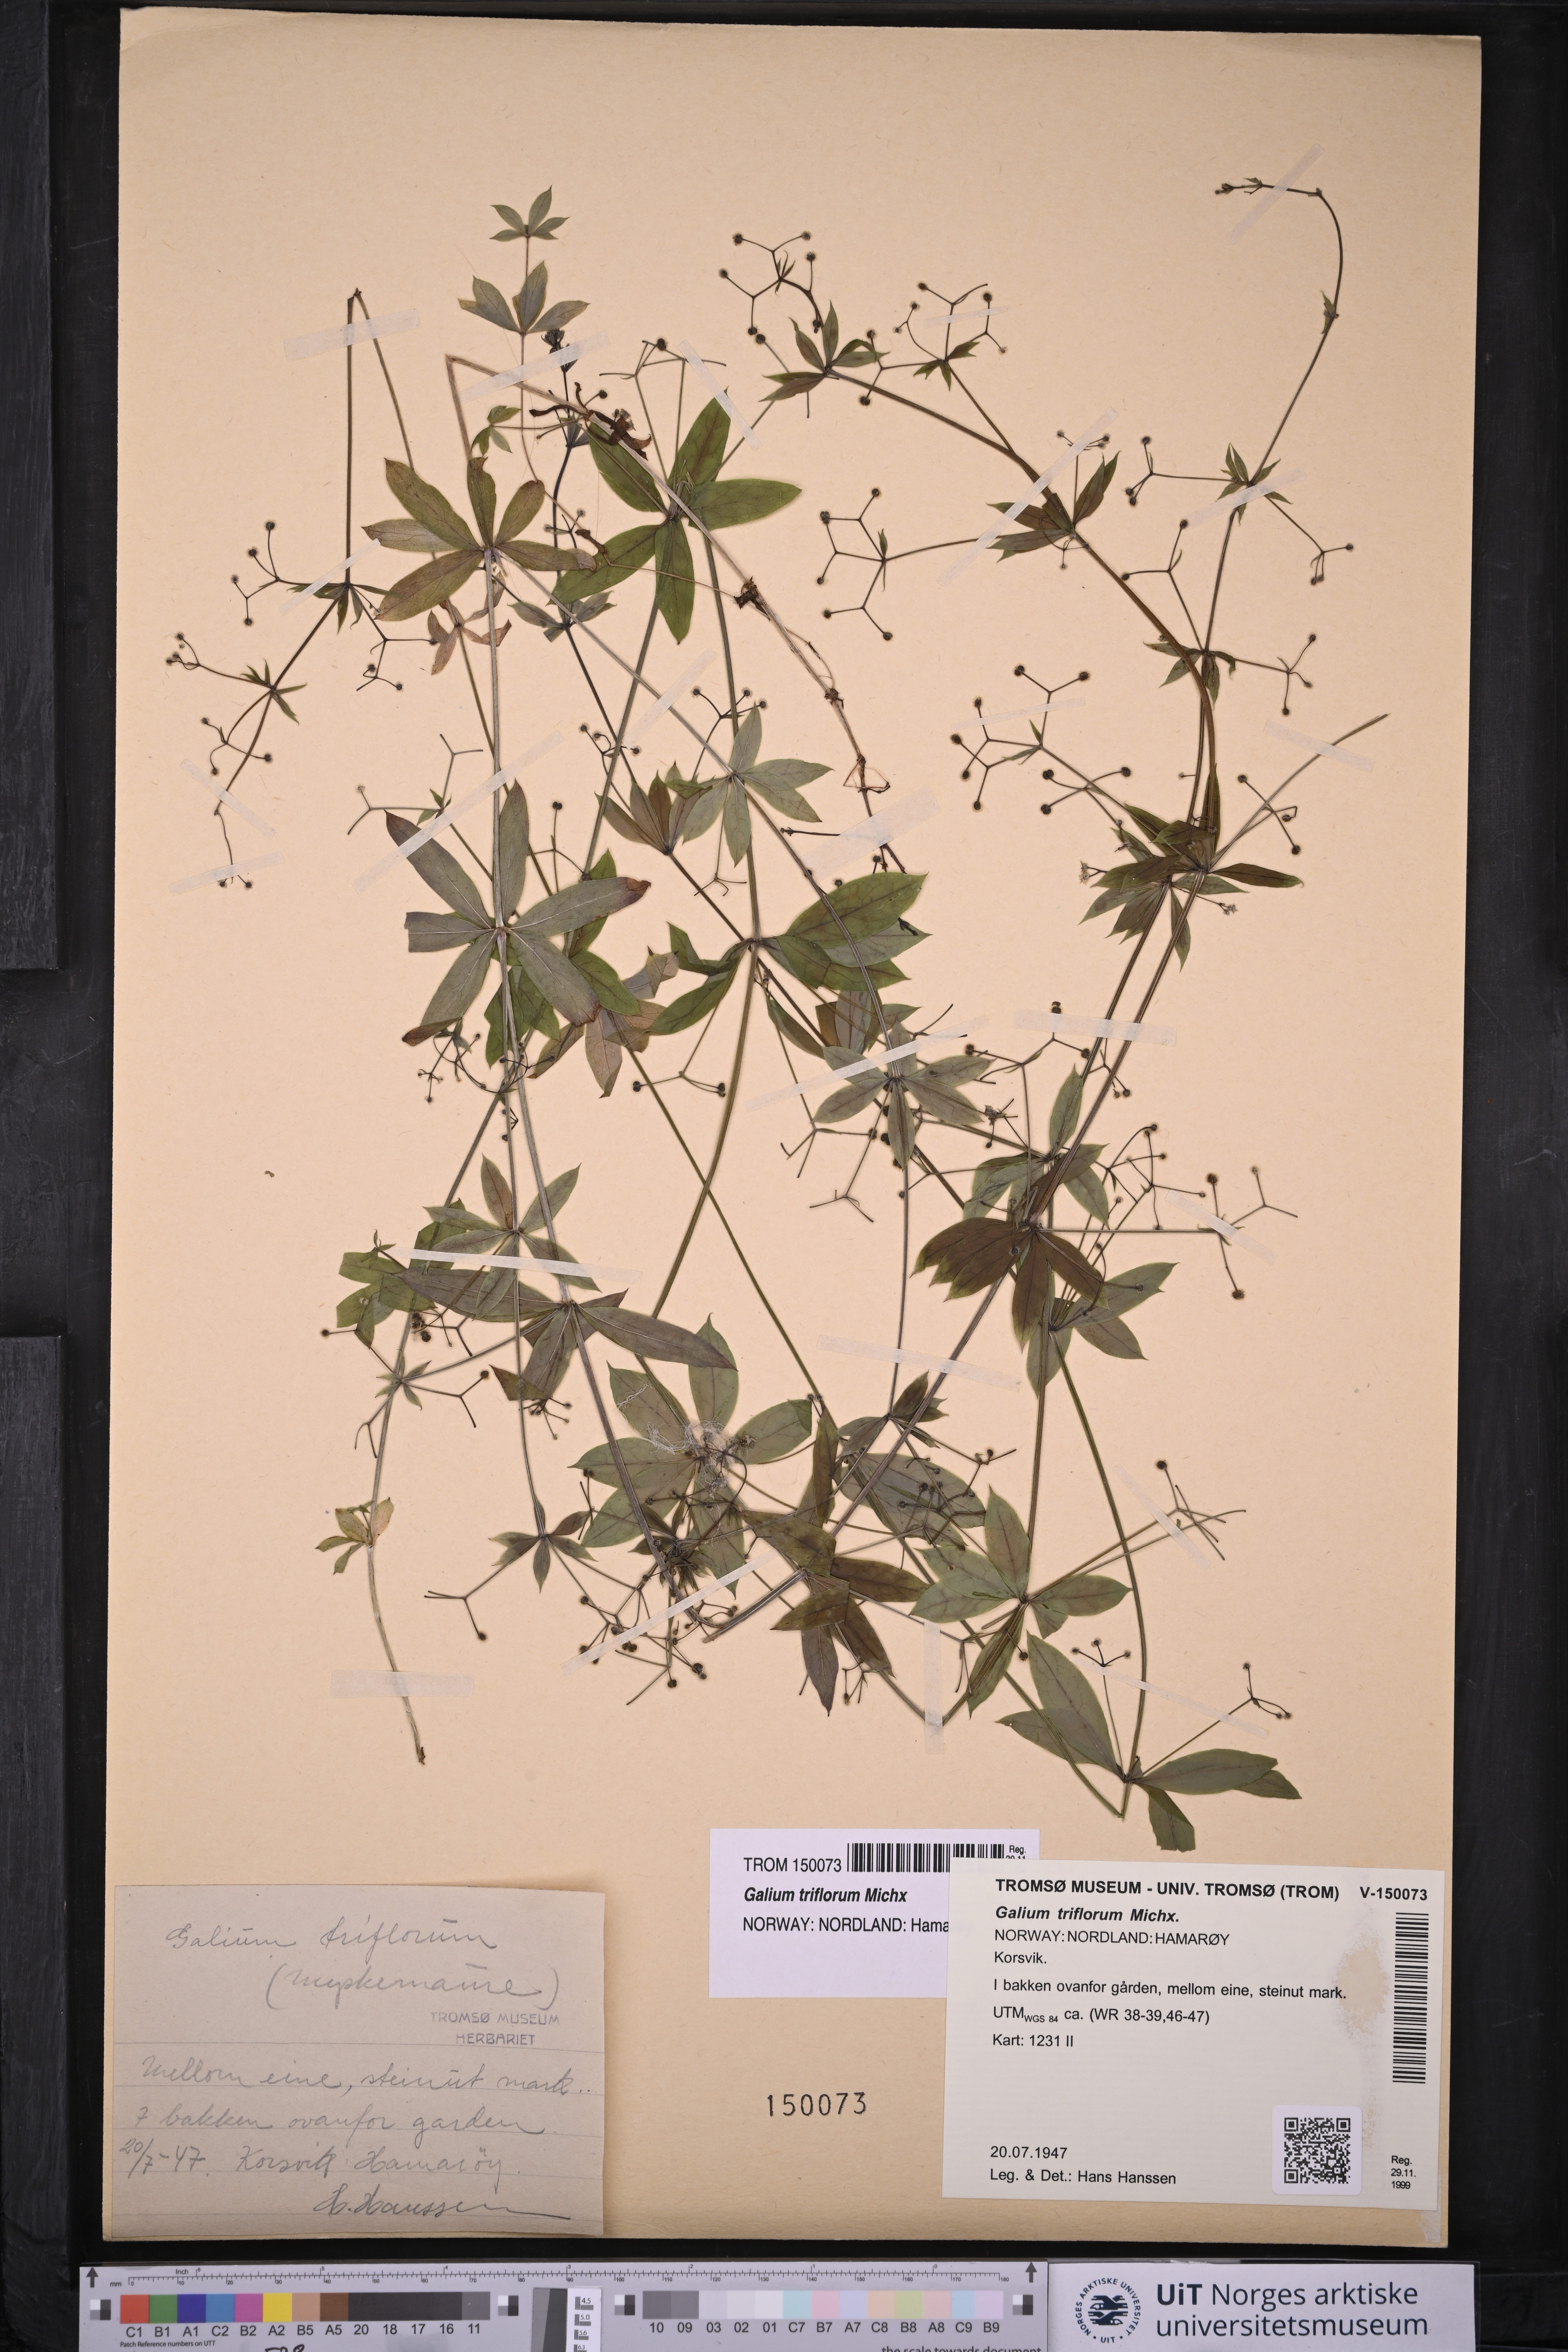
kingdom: Plantae
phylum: Tracheophyta
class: Magnoliopsida
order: Gentianales
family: Rubiaceae
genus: Galium
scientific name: Galium triflorum
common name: Fragrant bedstraw
